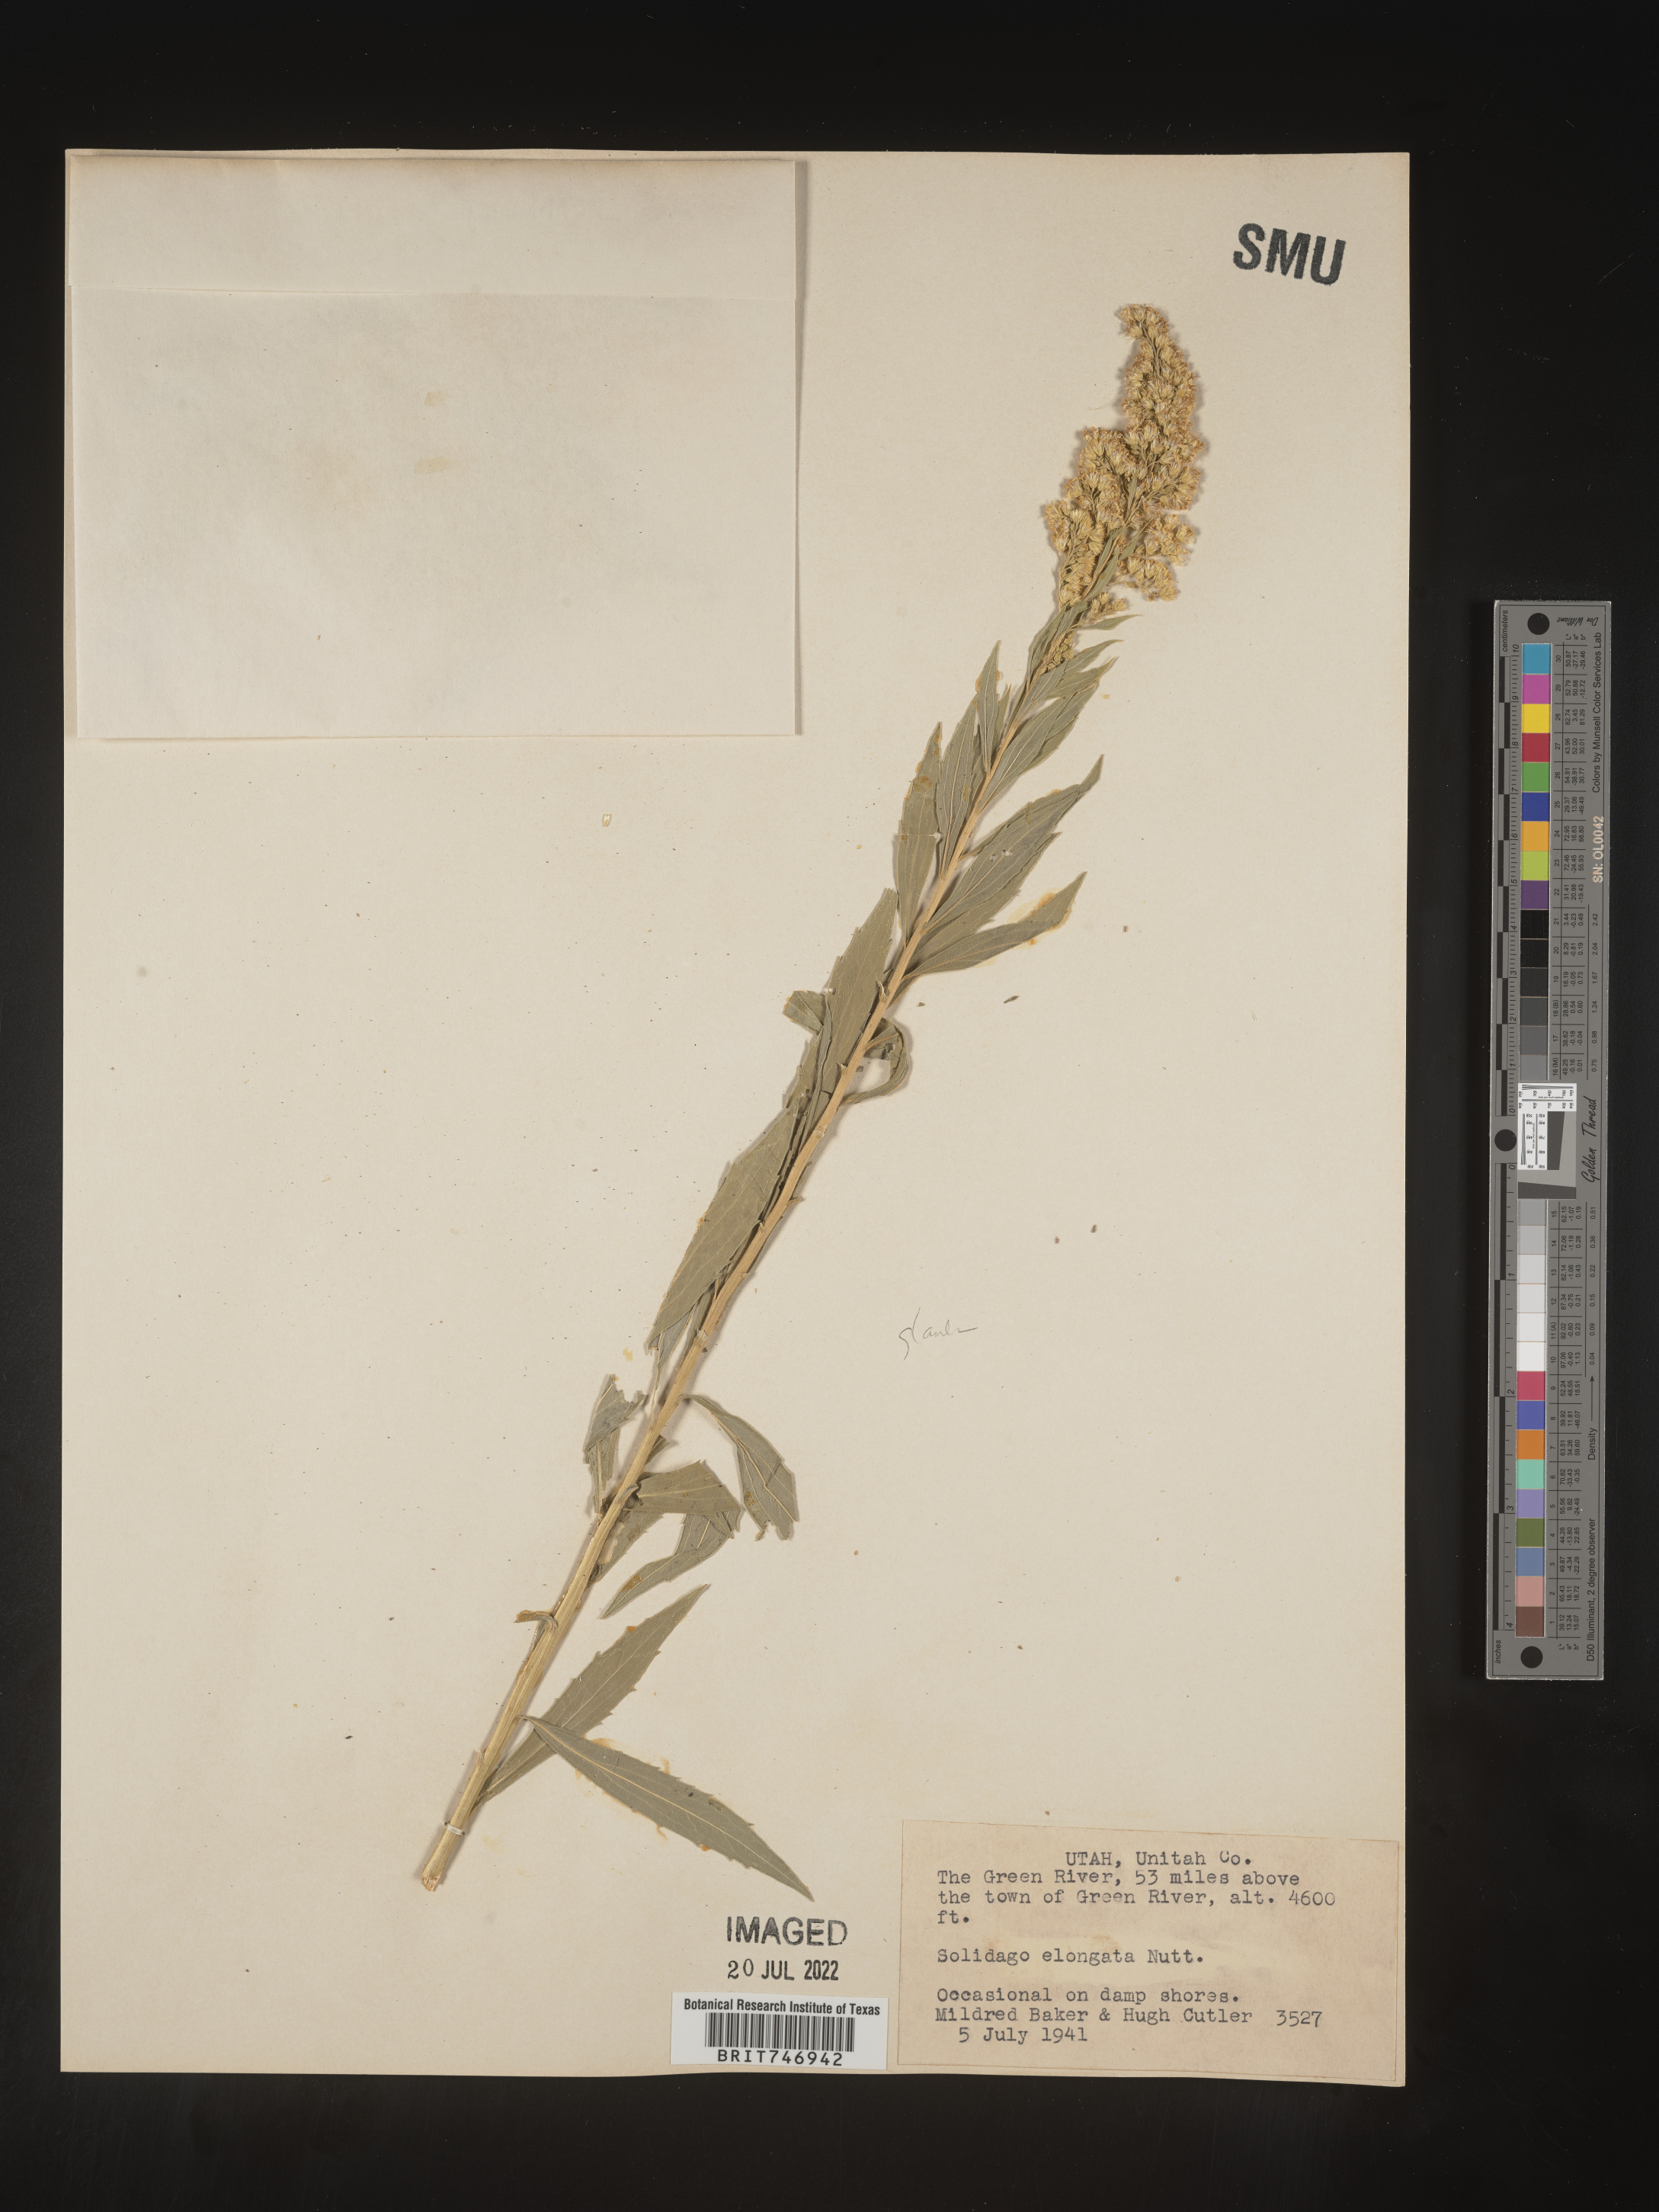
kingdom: Plantae
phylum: Tracheophyta
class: Magnoliopsida
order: Asterales
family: Asteraceae
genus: Solidago
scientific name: Solidago lepida
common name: Western canada goldenrod
